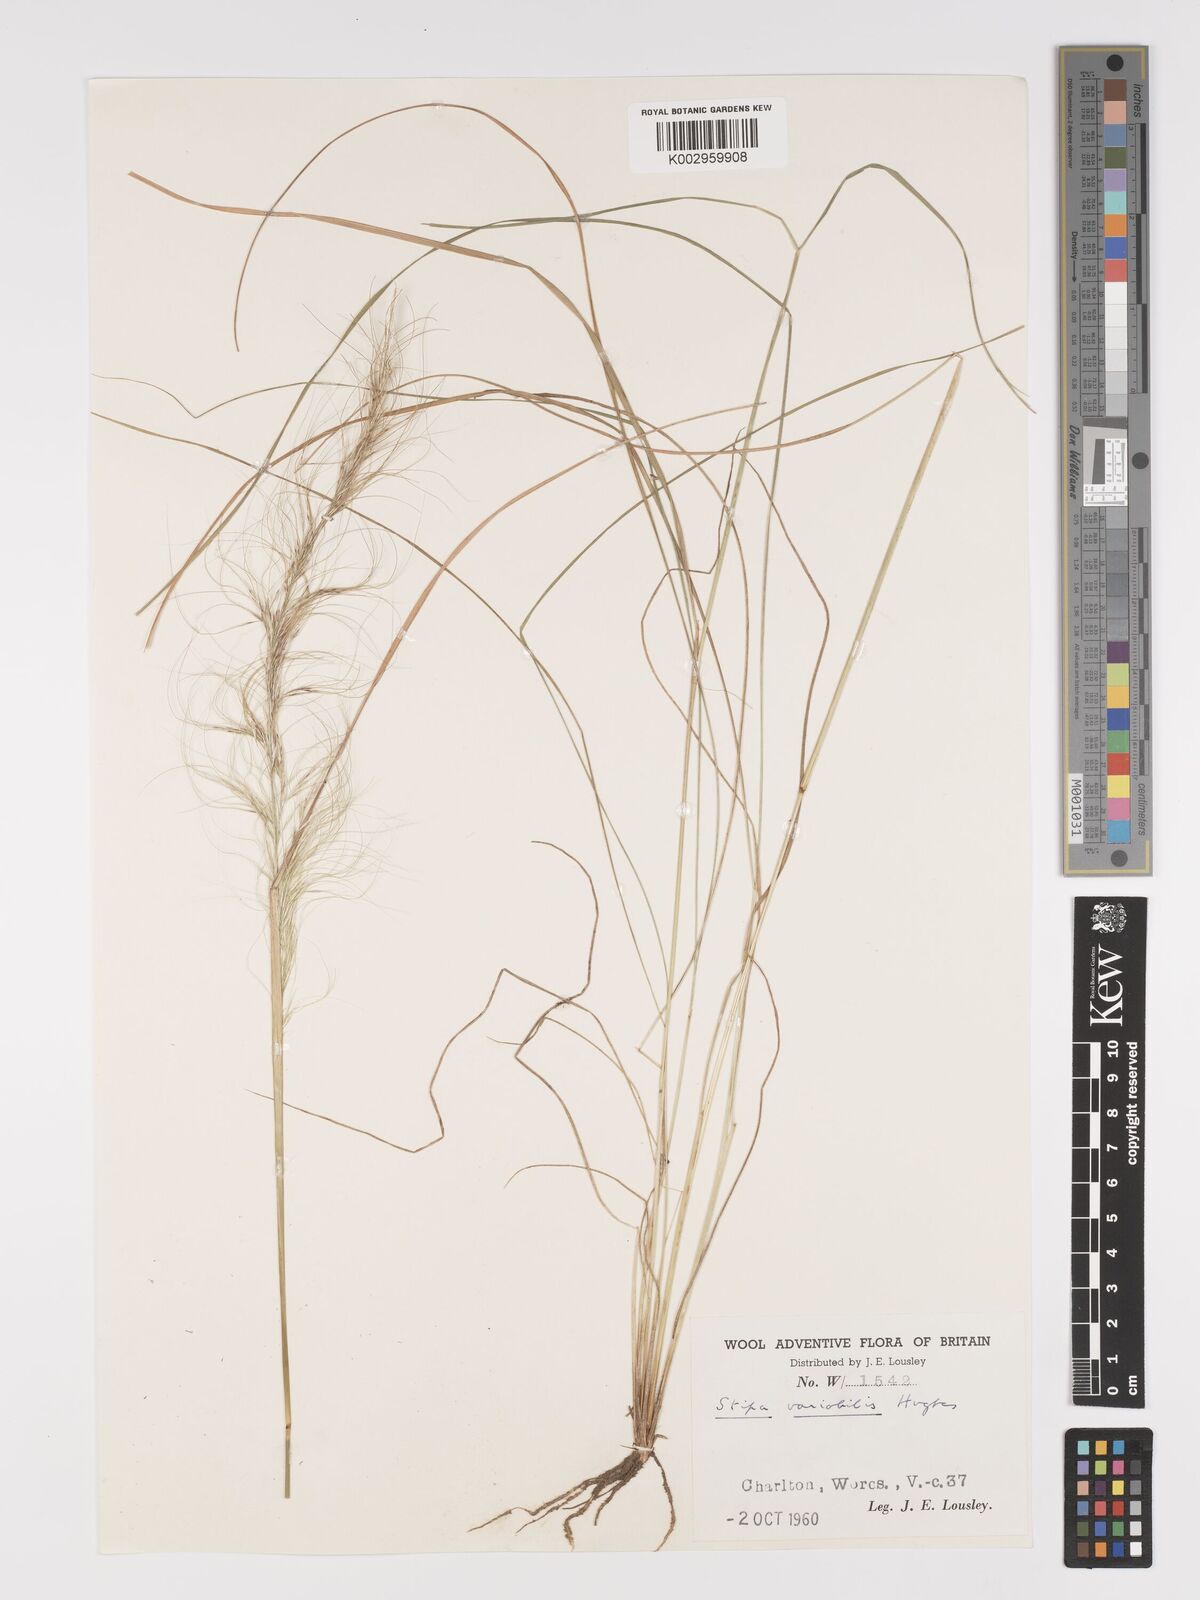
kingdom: Plantae
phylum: Tracheophyta
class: Liliopsida
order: Poales
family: Poaceae
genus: Austrostipa
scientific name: Austrostipa variabilis
